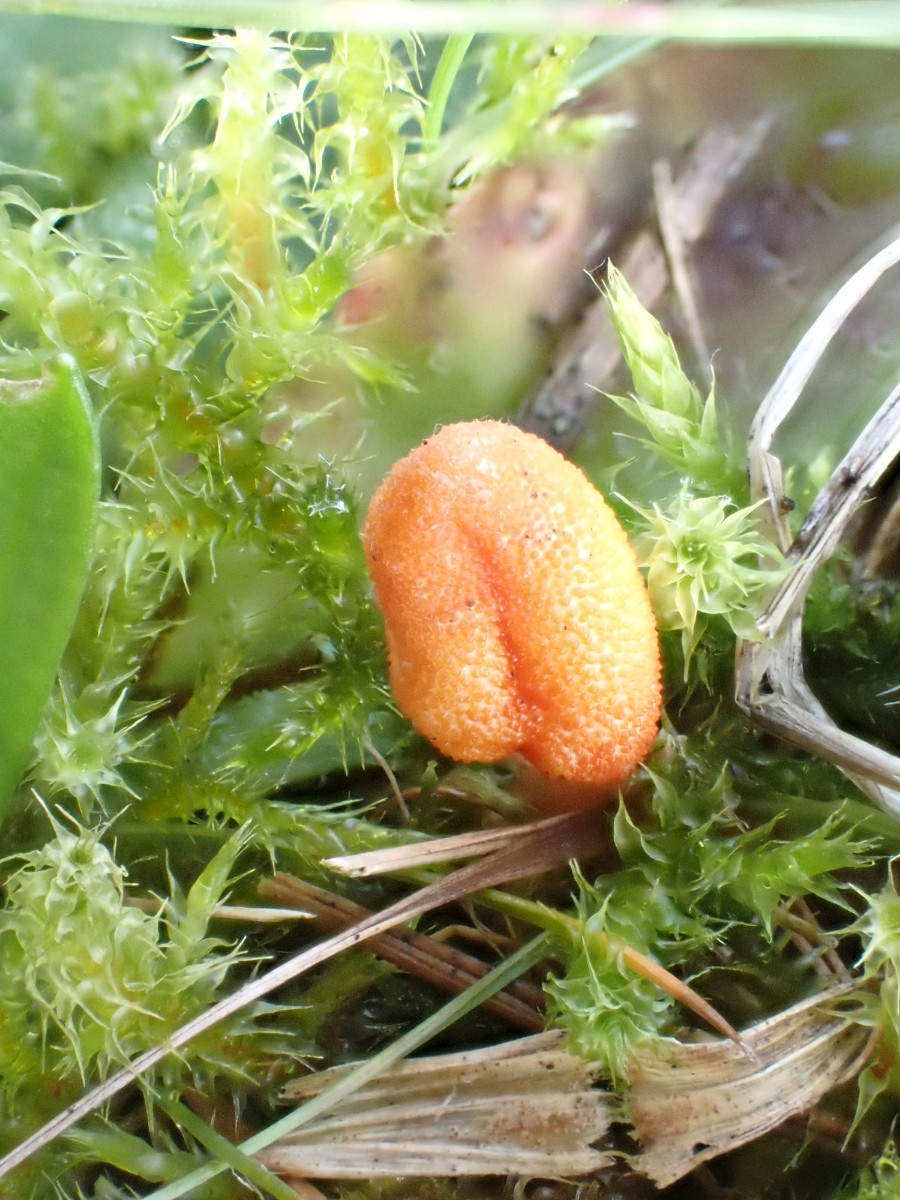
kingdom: Fungi
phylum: Ascomycota
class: Sordariomycetes
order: Hypocreales
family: Cordycipitaceae
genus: Cordyceps
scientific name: Cordyceps militaris
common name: puppe-snyltekølle
